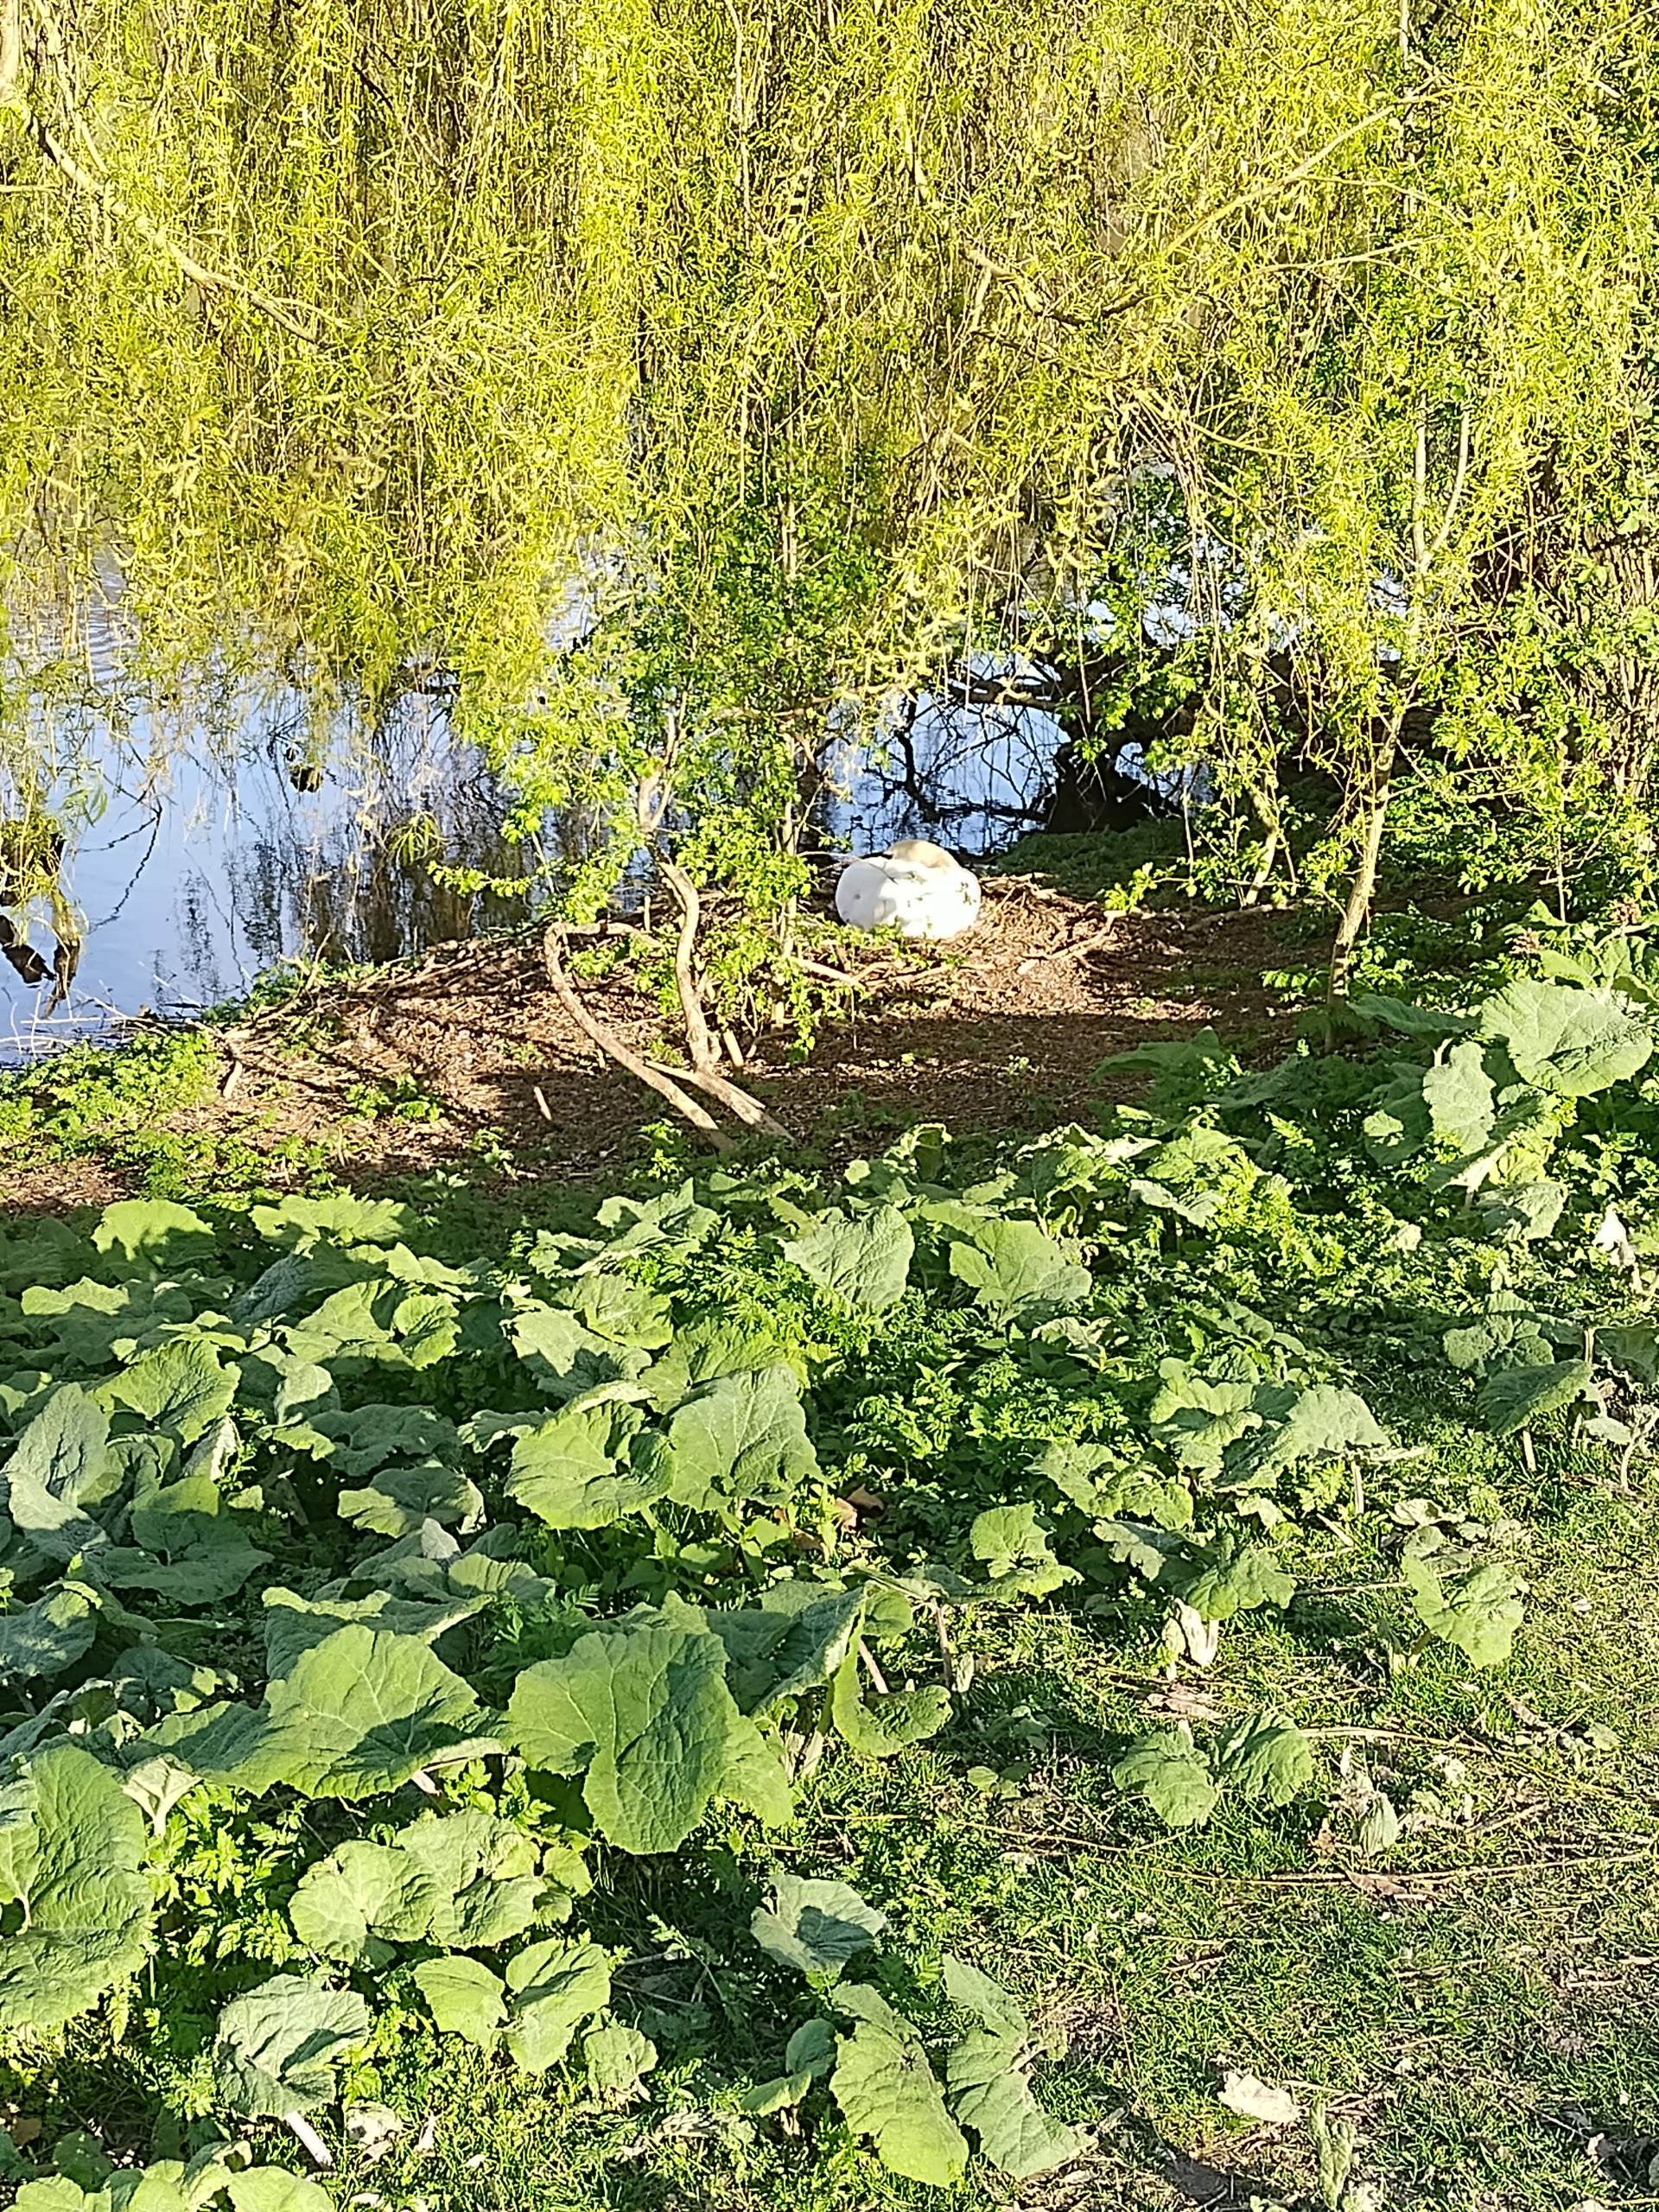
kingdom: Animalia
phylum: Chordata
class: Aves
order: Anseriformes
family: Anatidae
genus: Cygnus
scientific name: Cygnus olor
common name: Knopsvane
